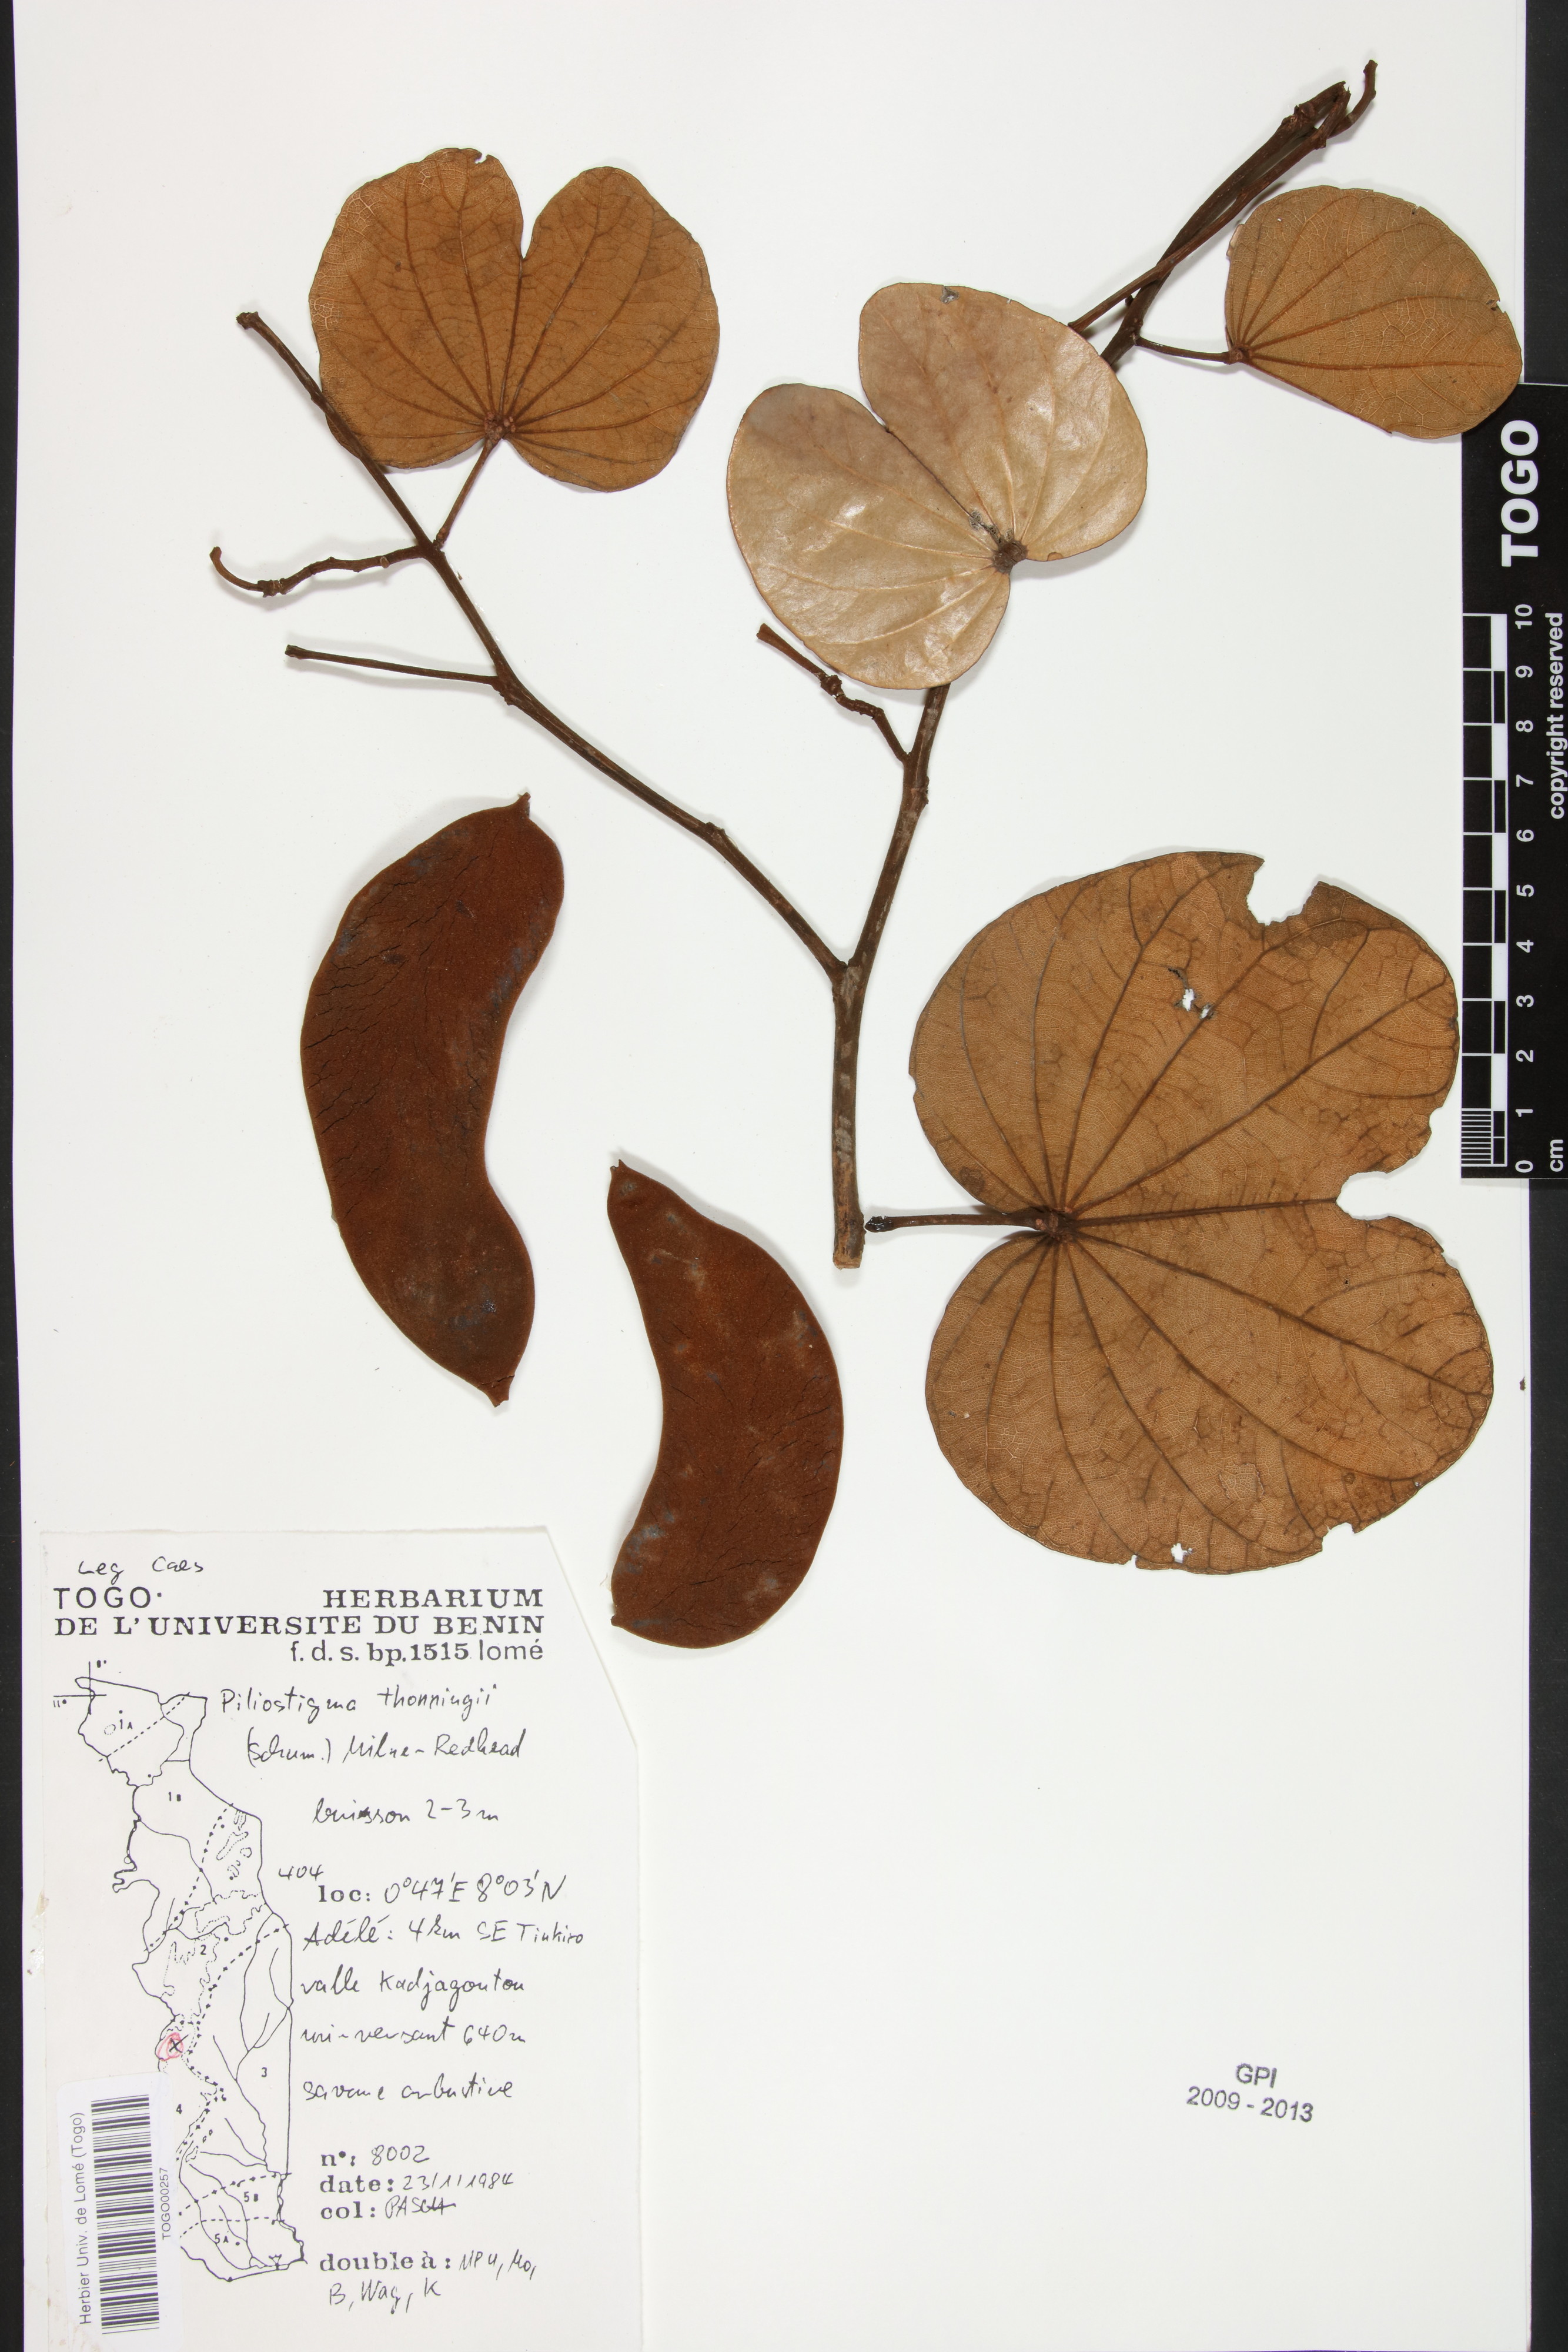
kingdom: Plantae
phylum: Tracheophyta
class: Magnoliopsida
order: Fabales
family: Fabaceae
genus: Piliostigma
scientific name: Piliostigma thonningii
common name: Kao
